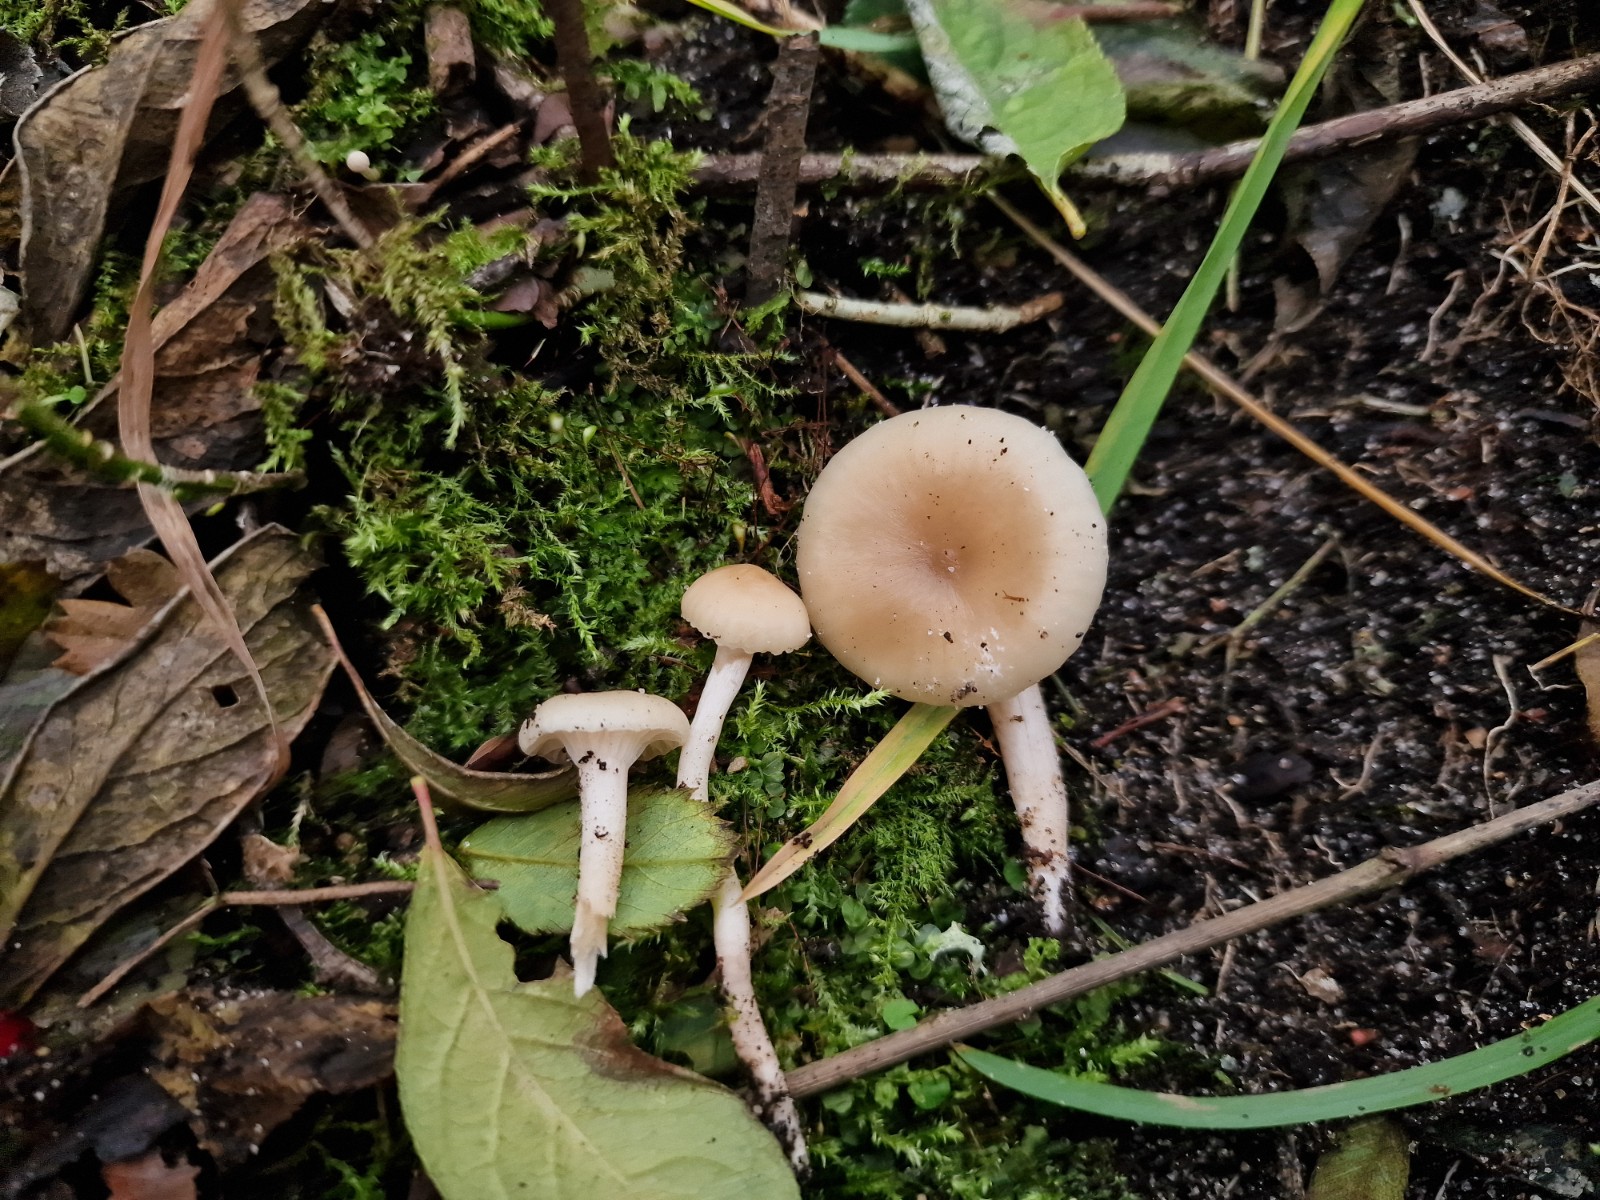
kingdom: Fungi
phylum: Basidiomycota
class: Agaricomycetes
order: Agaricales
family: Hygrophoraceae
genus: Cuphophyllus
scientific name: Cuphophyllus virgineus
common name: isabella-vokshat
